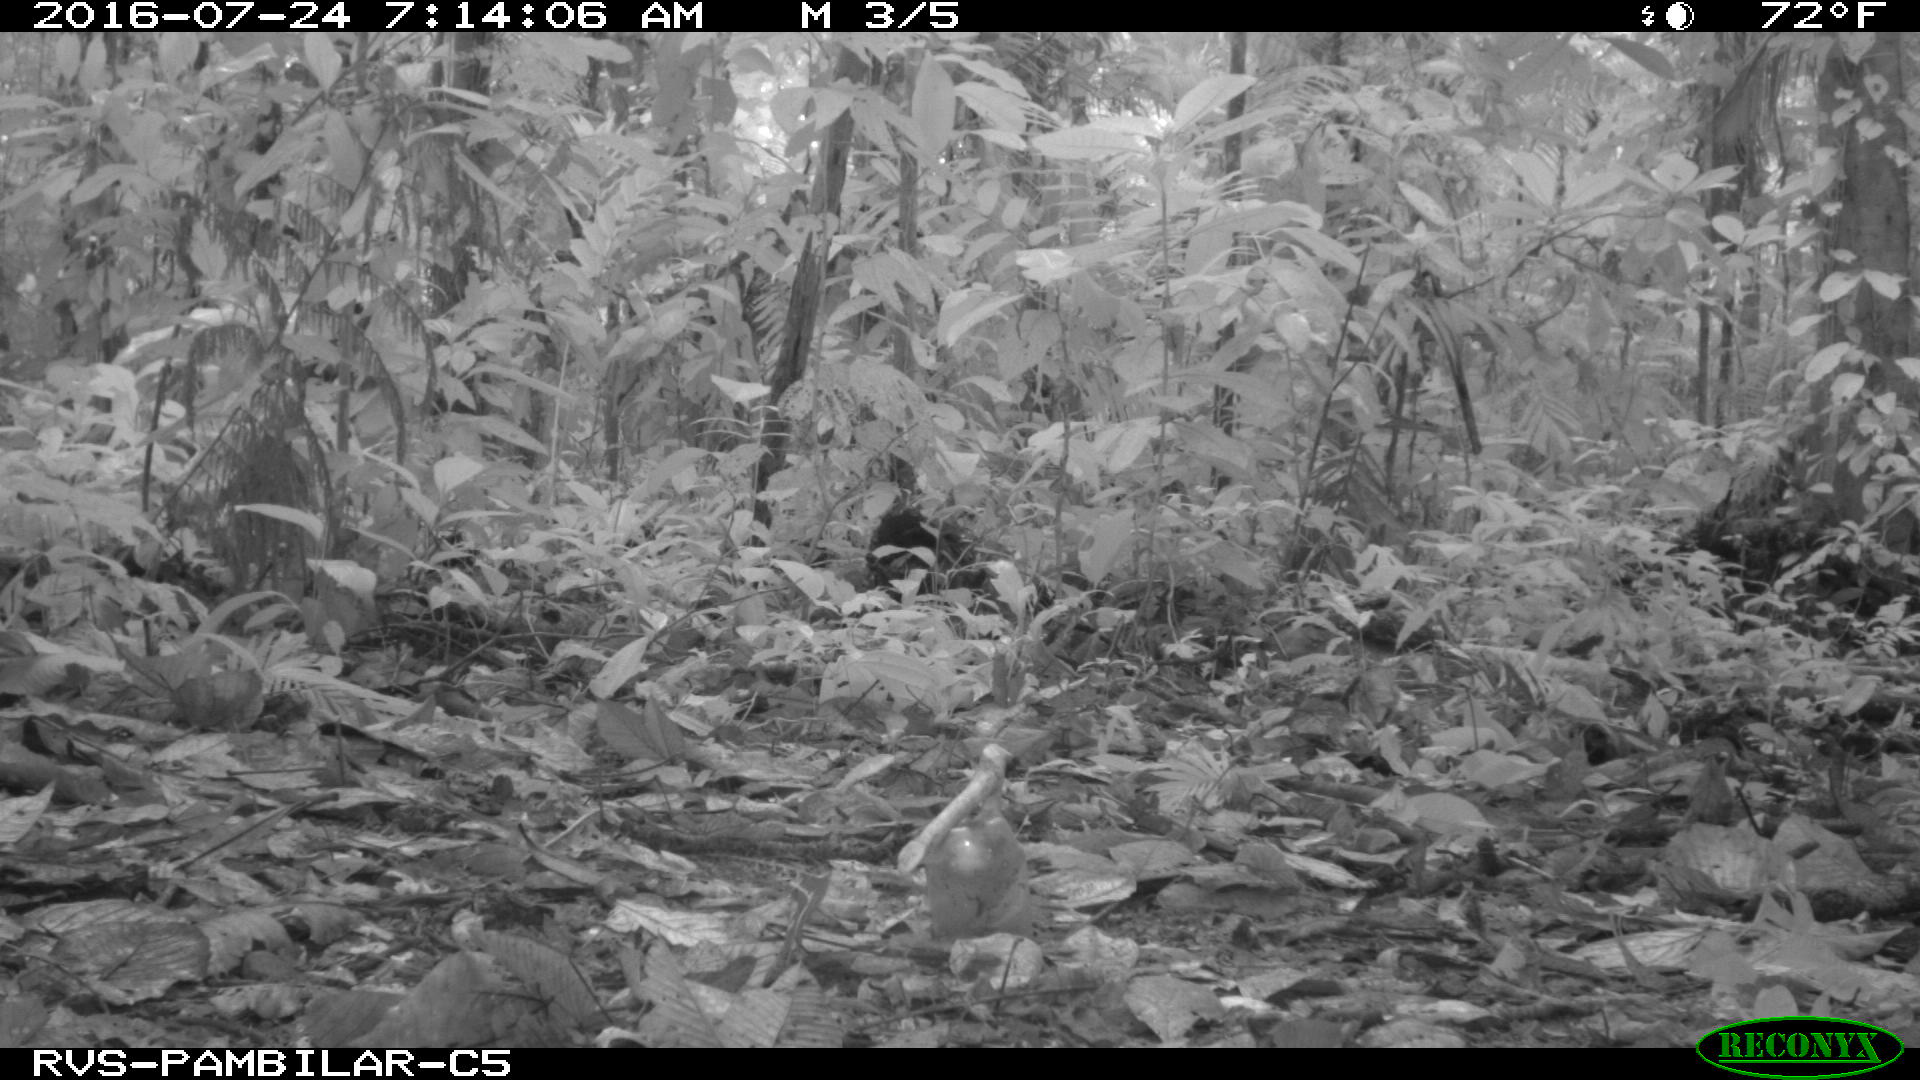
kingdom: Animalia
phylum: Chordata
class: Mammalia
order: Rodentia
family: Dasyproctidae
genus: Dasyprocta
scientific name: Dasyprocta punctata
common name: Central american agouti
